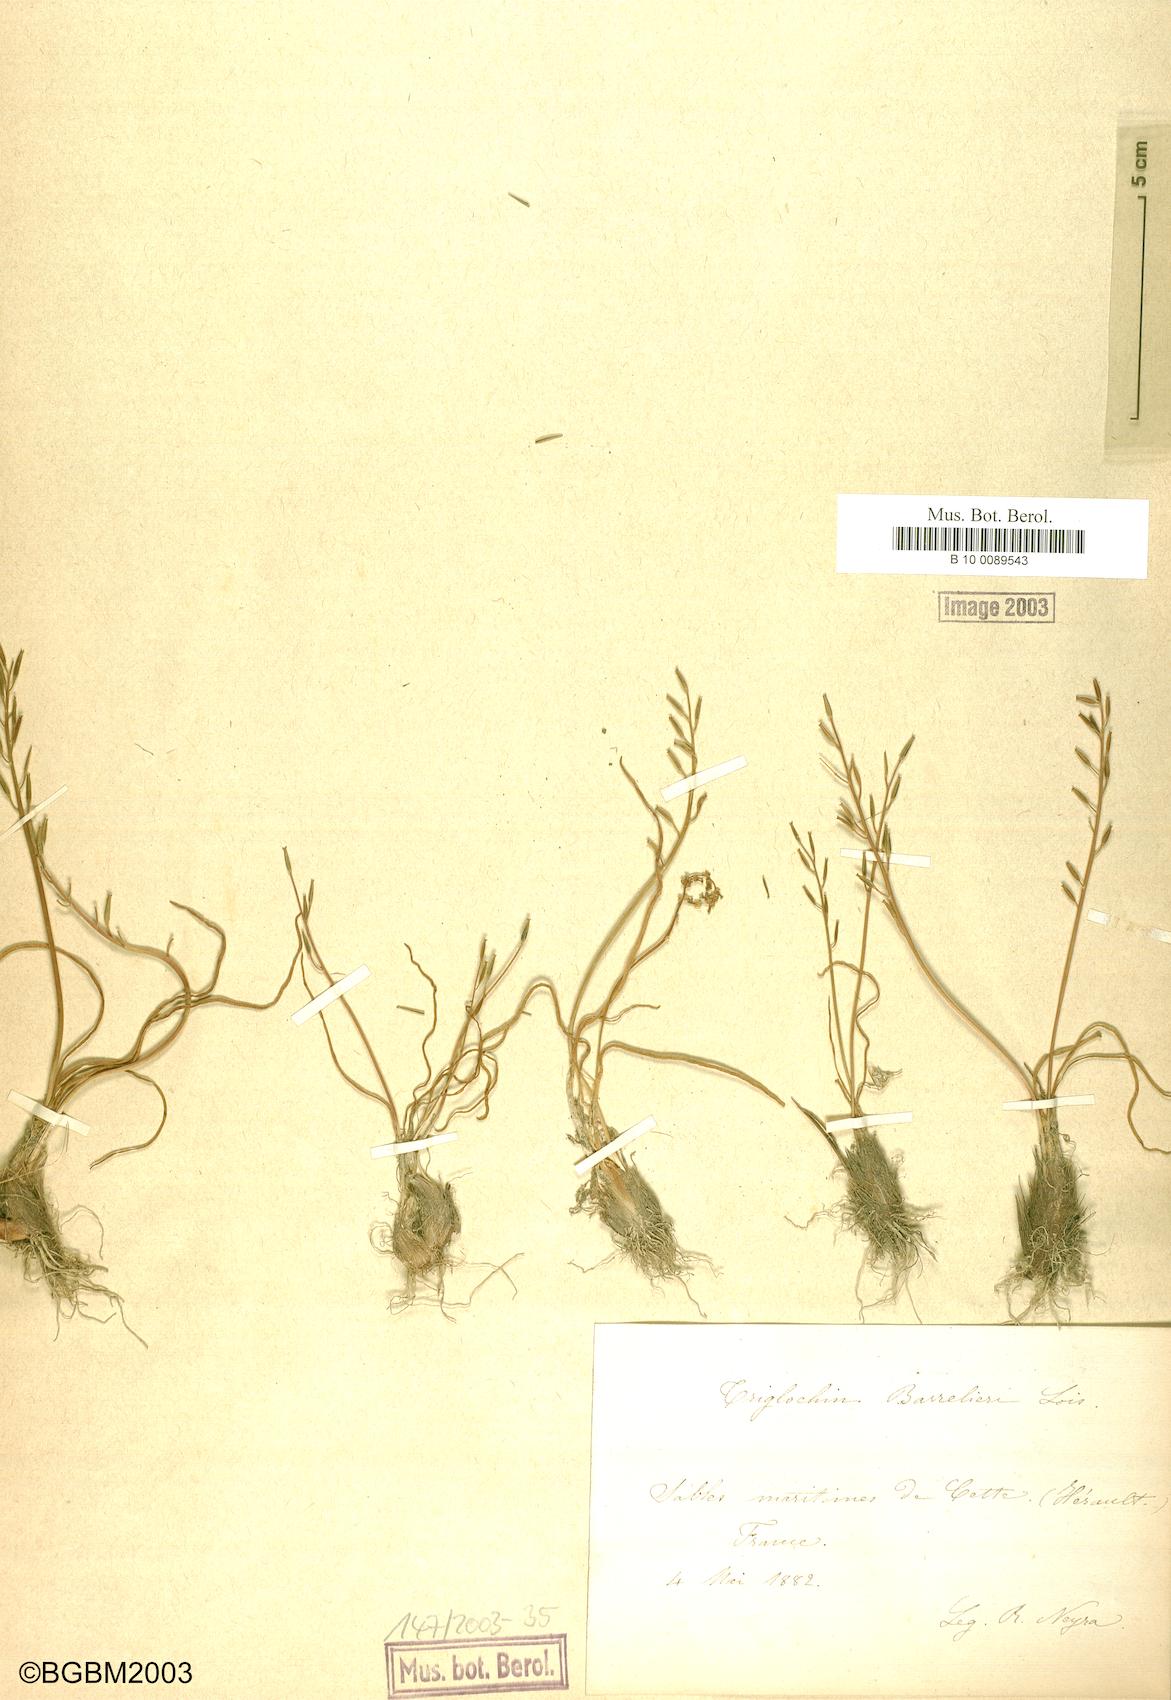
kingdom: Plantae
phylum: Tracheophyta
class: Liliopsida
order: Alismatales
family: Juncaginaceae
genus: Triglochin
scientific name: Triglochin bulbosa
